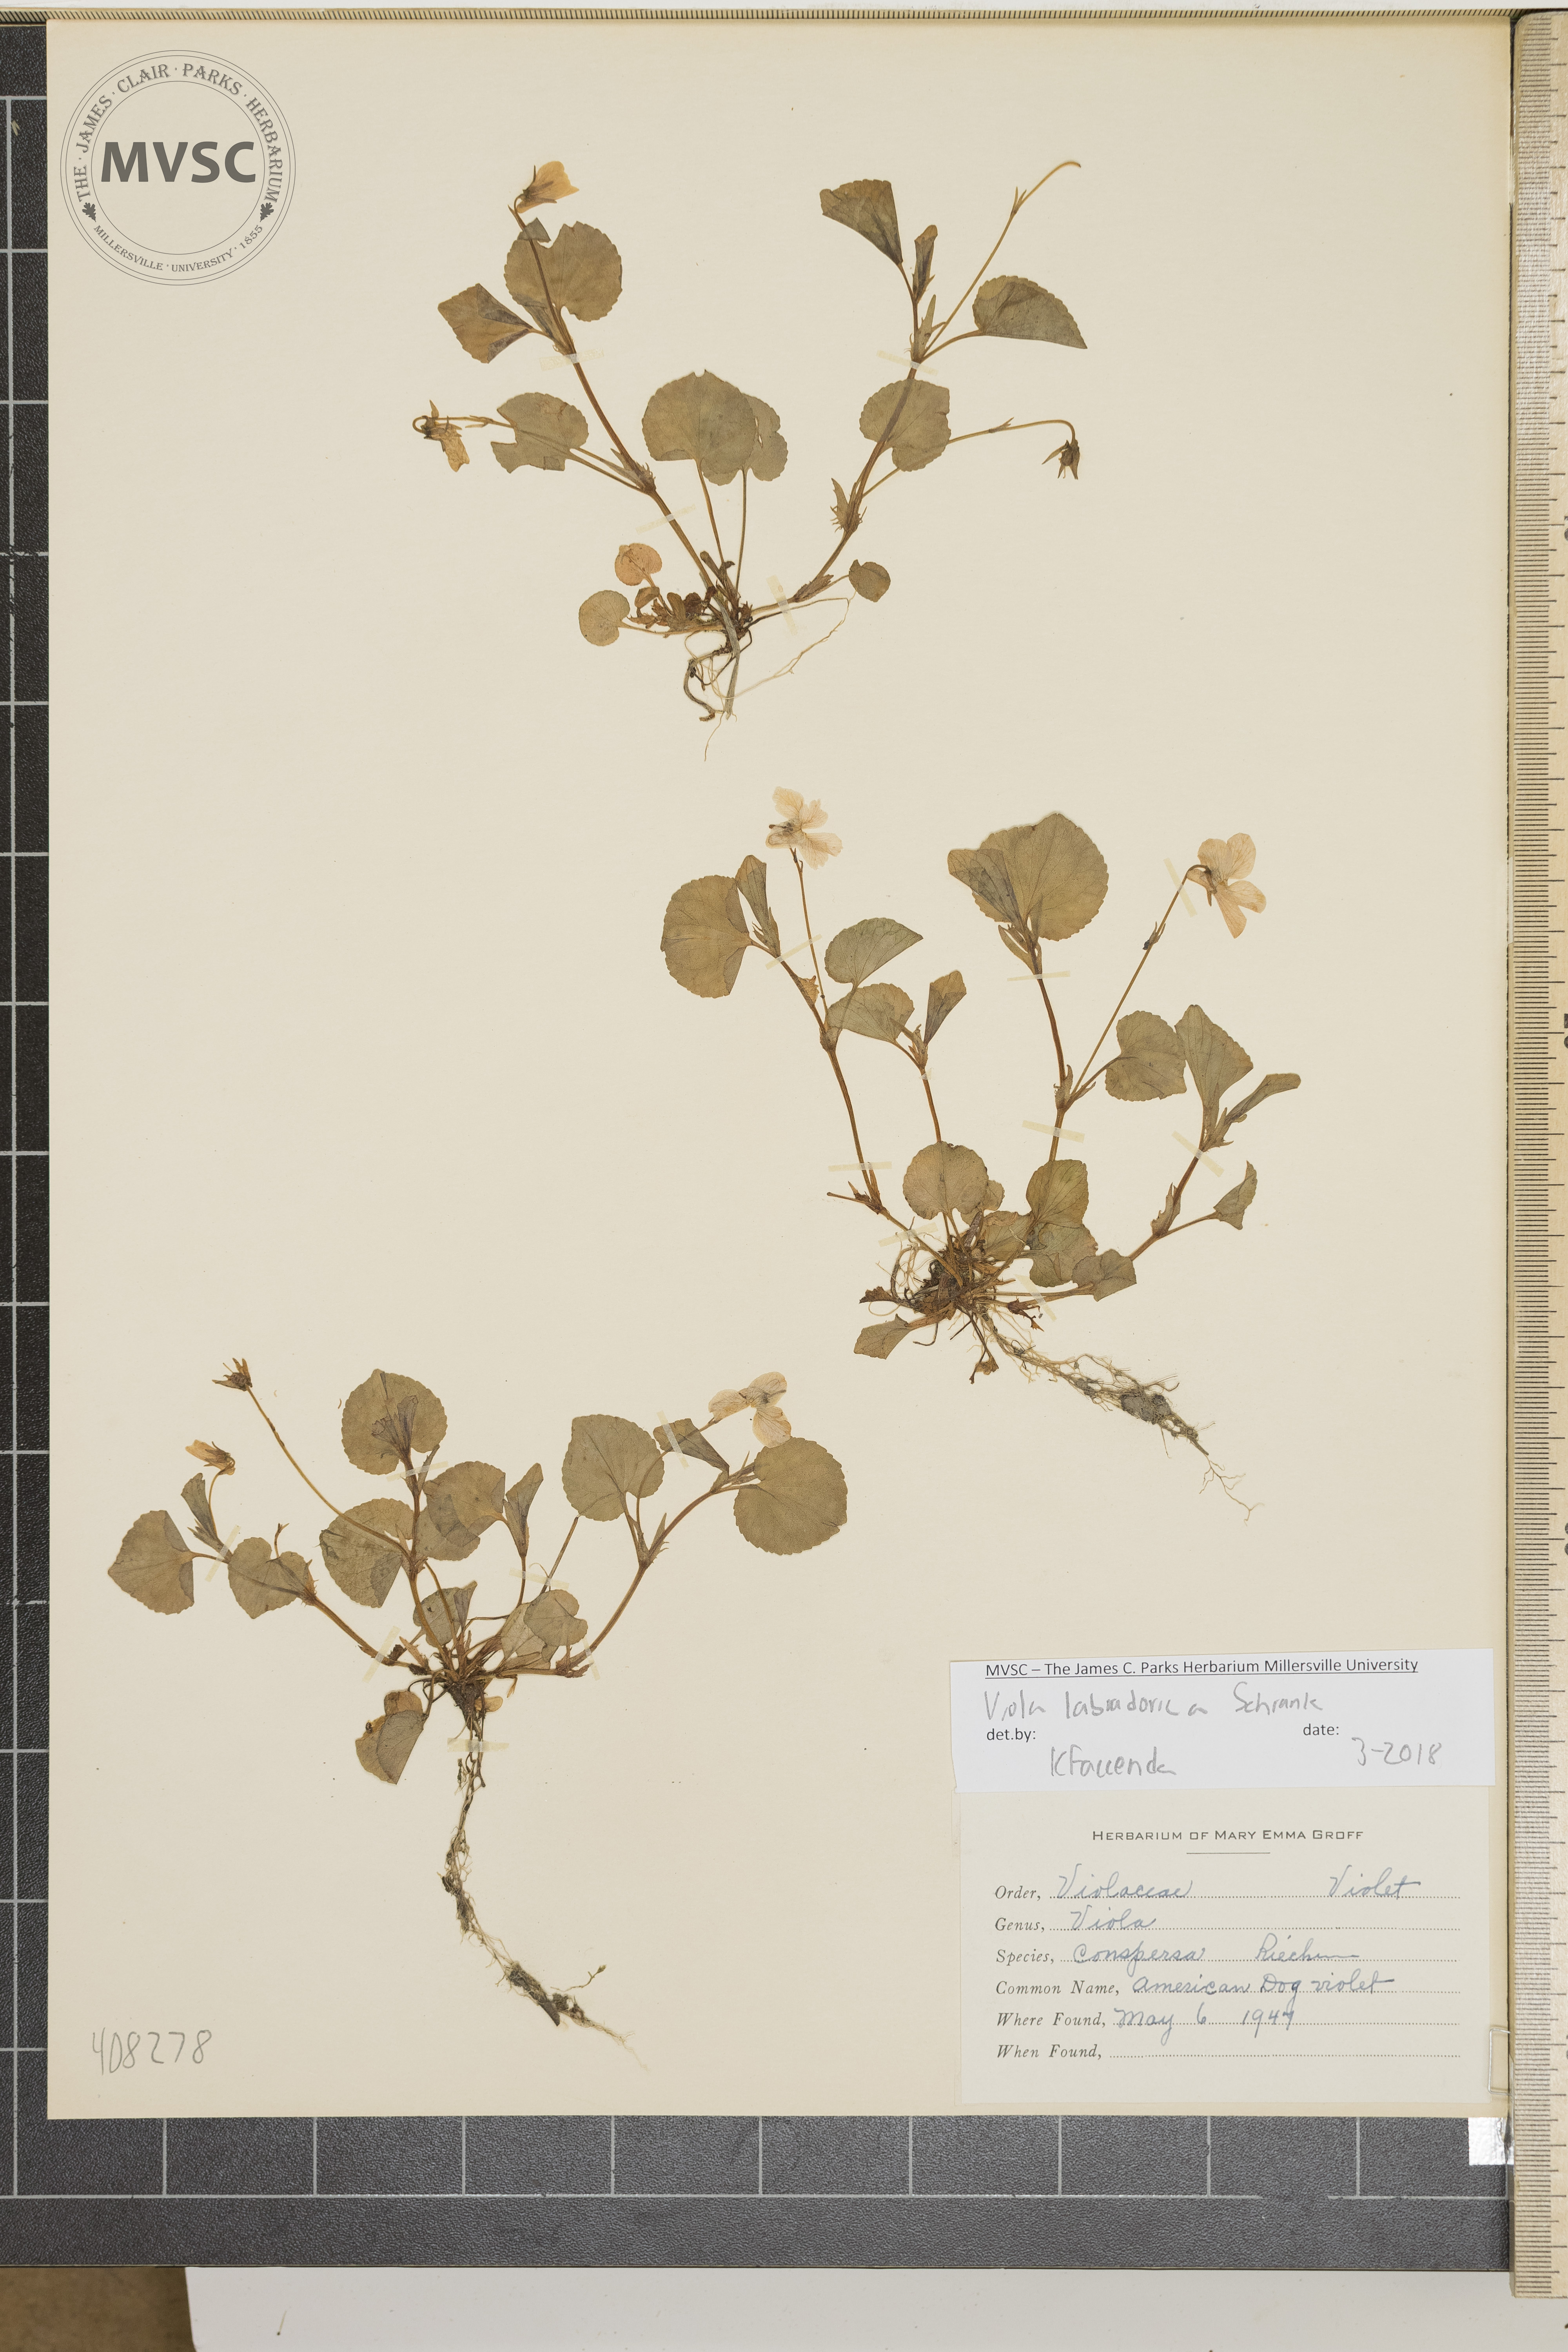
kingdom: Plantae
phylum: Tracheophyta
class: Magnoliopsida
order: Malpighiales
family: Violaceae
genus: Viola
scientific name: Viola labradorica
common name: American Dog Violet
